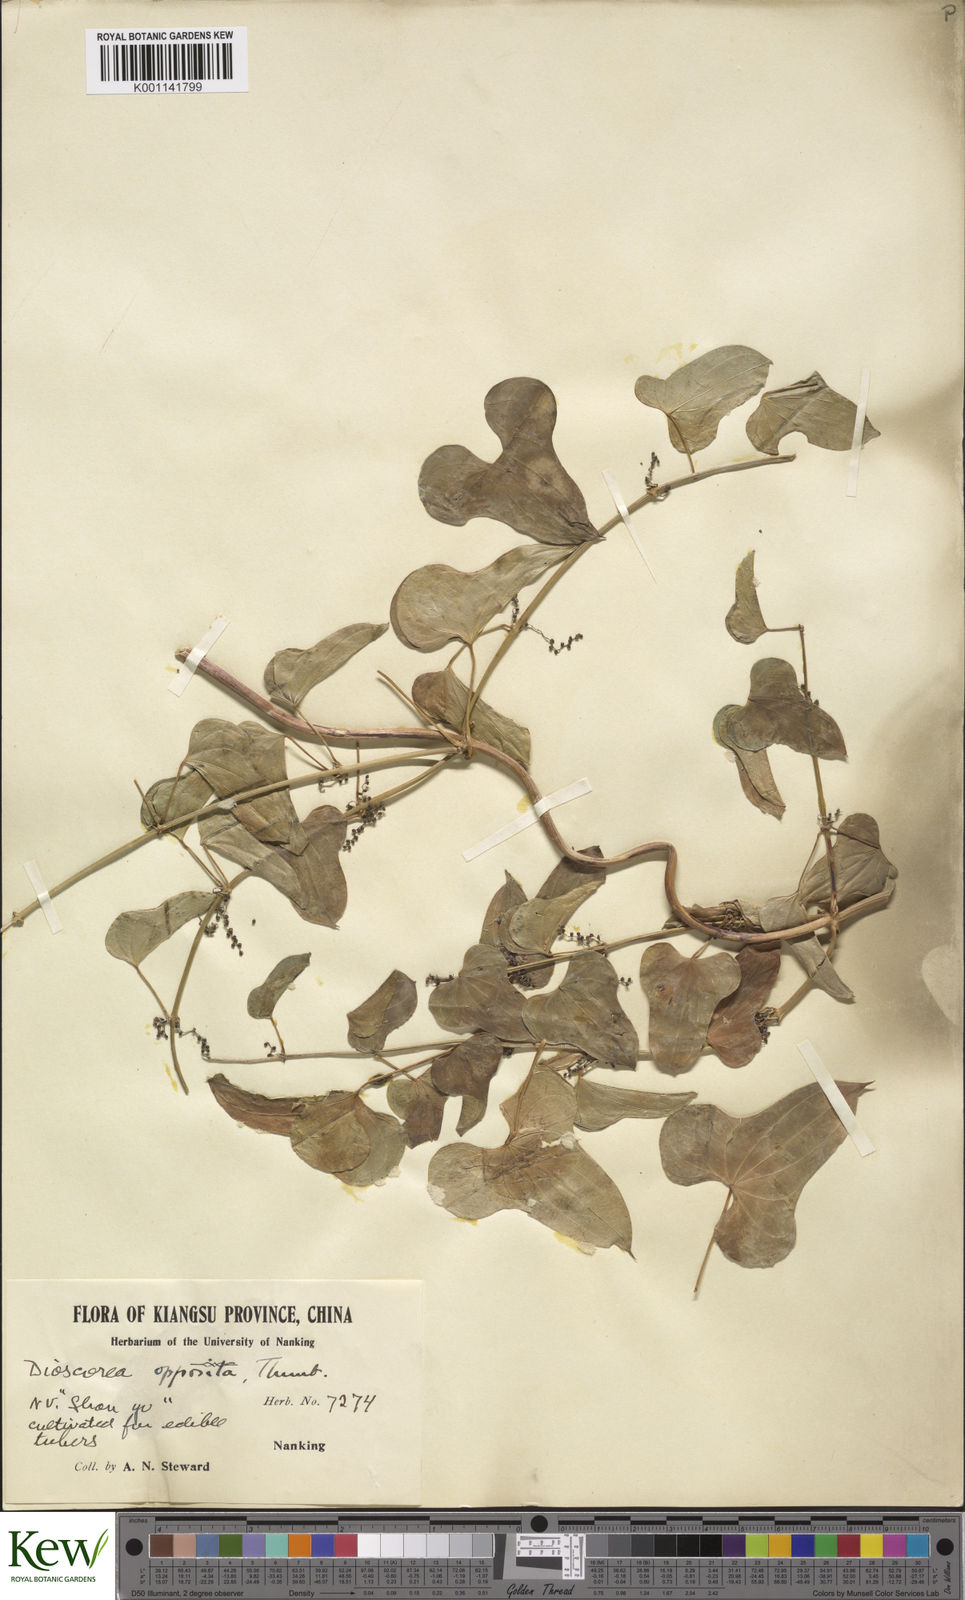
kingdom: Plantae
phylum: Tracheophyta
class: Liliopsida
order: Dioscoreales
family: Dioscoreaceae
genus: Dioscorea
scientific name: Dioscorea oppositifolia
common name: Chinese yam
